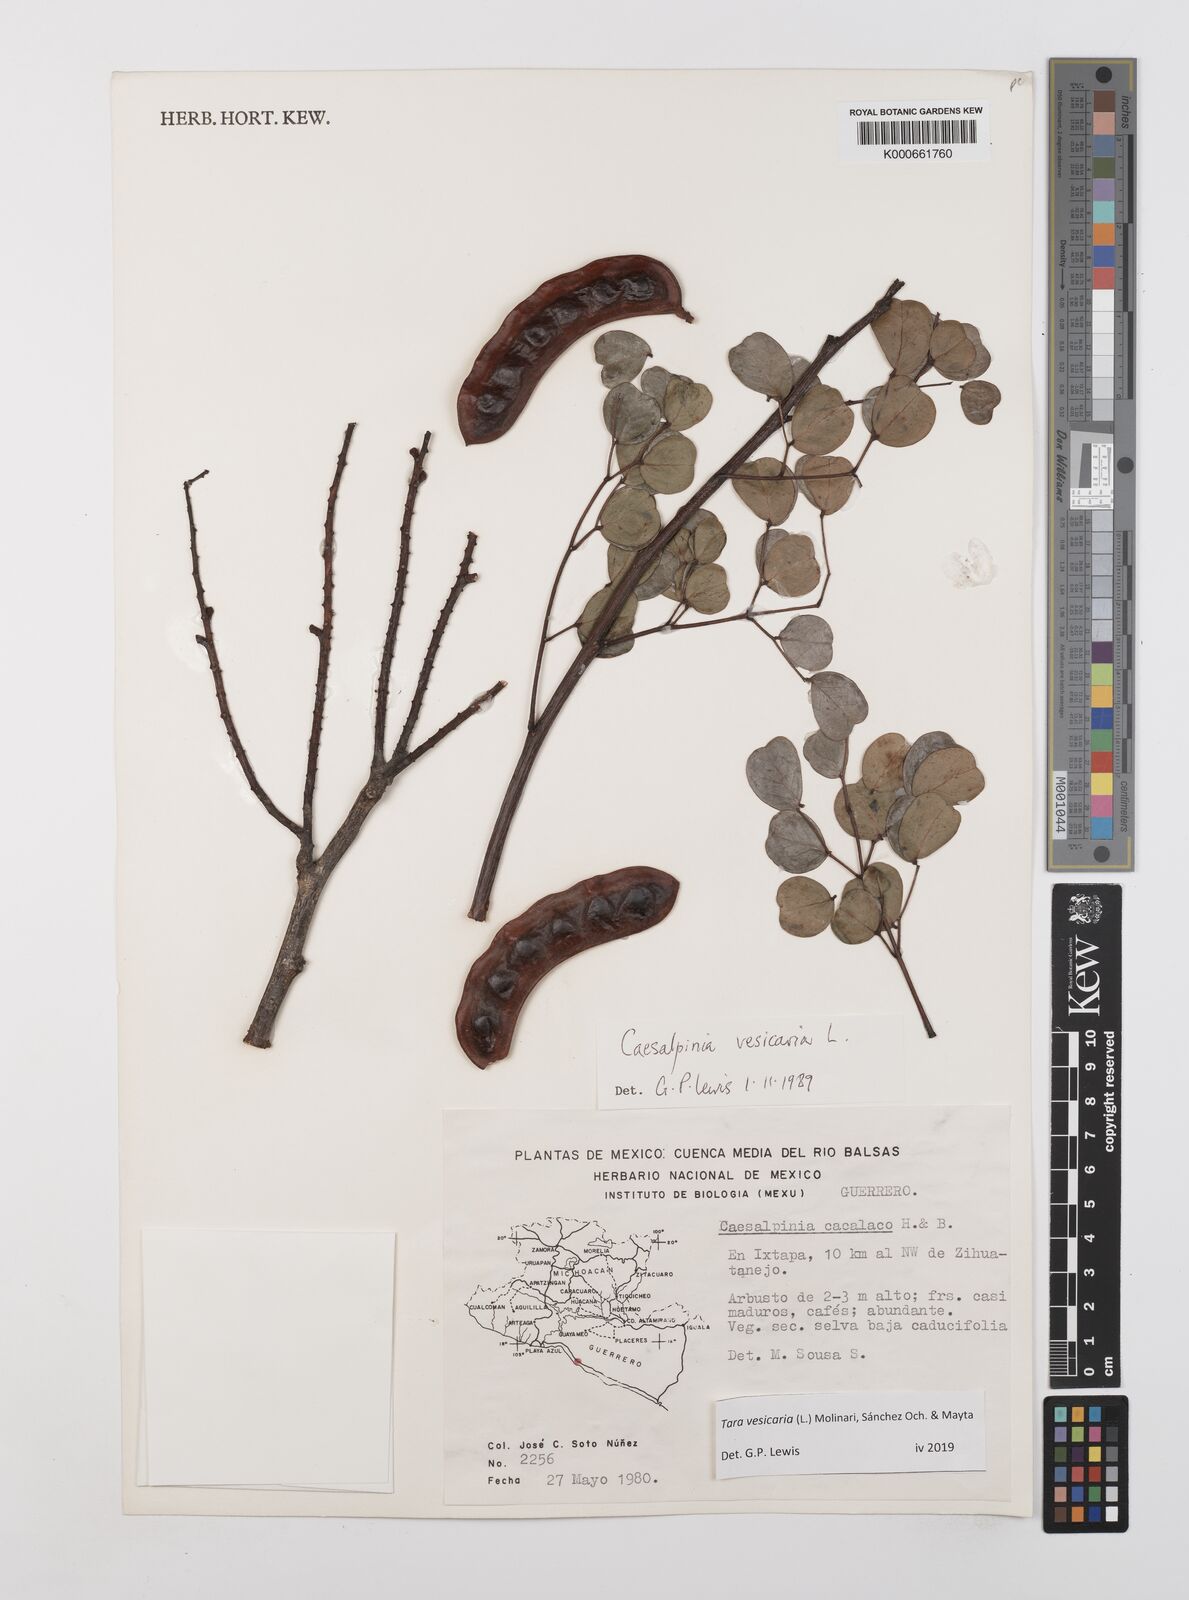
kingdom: Plantae
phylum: Tracheophyta
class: Magnoliopsida
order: Fabales
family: Fabaceae
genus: Tara
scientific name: Tara vesicaria
